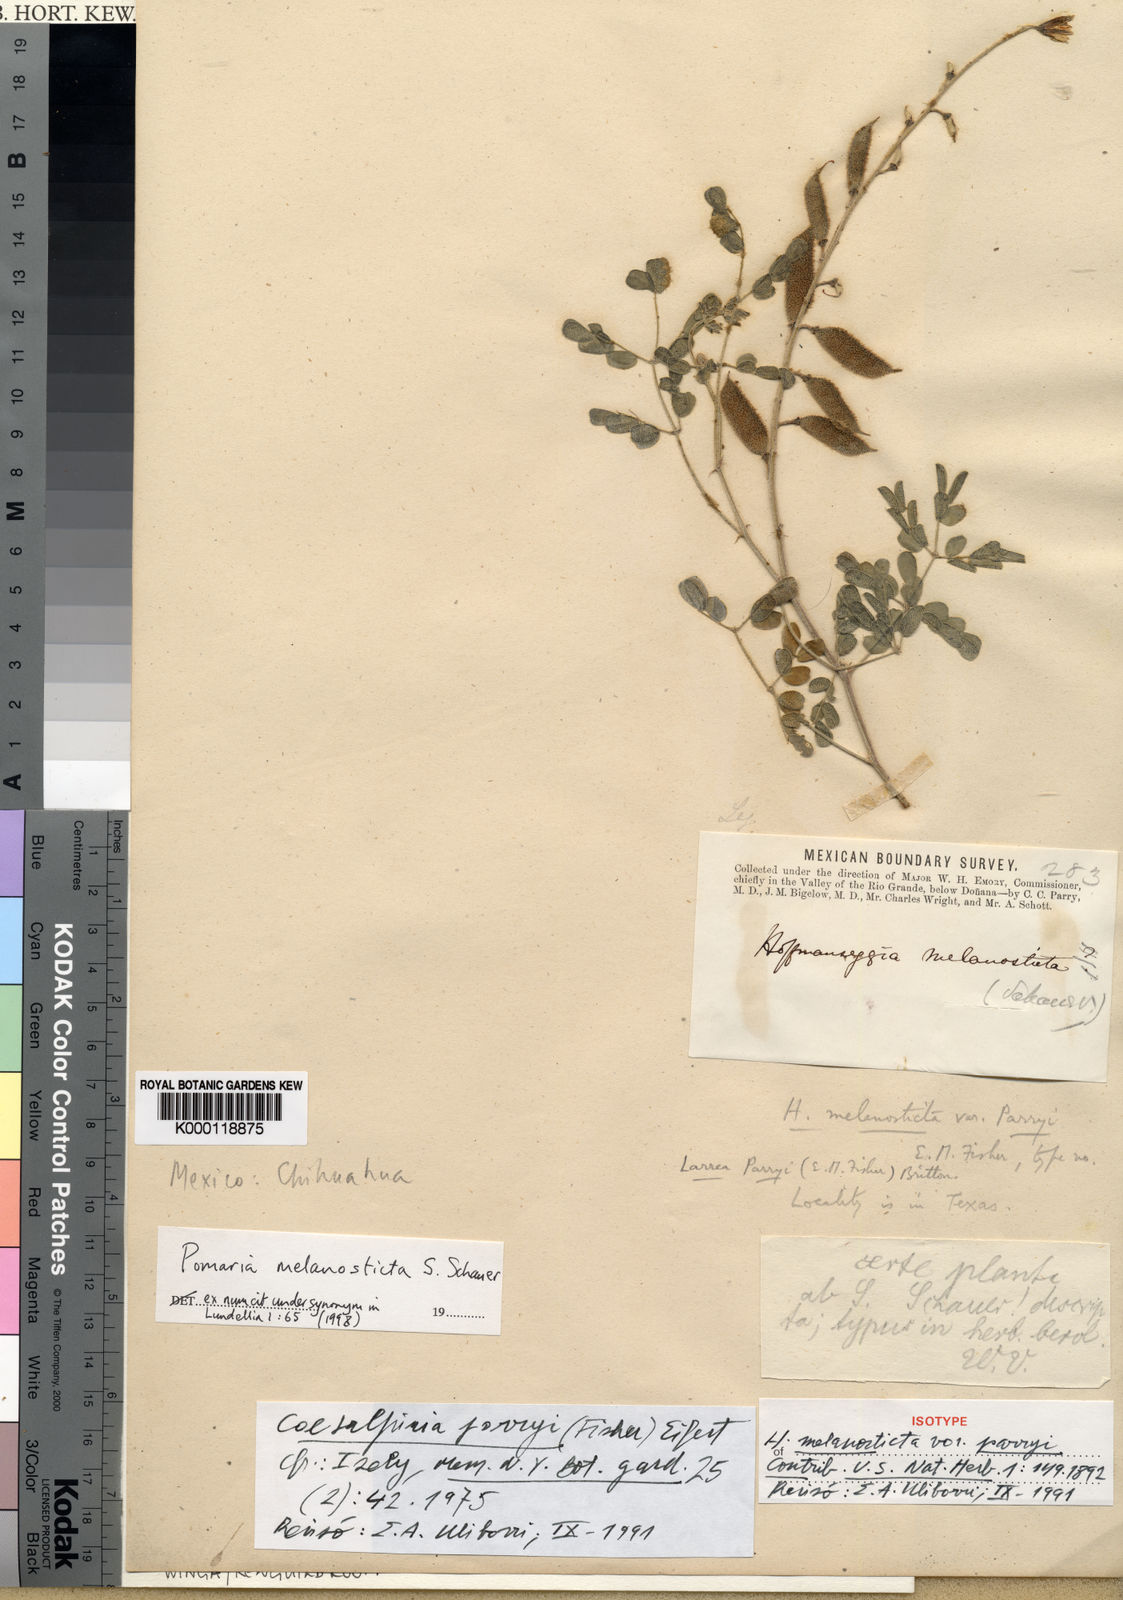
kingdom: Plantae
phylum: Tracheophyta
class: Magnoliopsida
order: Fabales
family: Fabaceae
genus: Pomaria
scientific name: Pomaria
